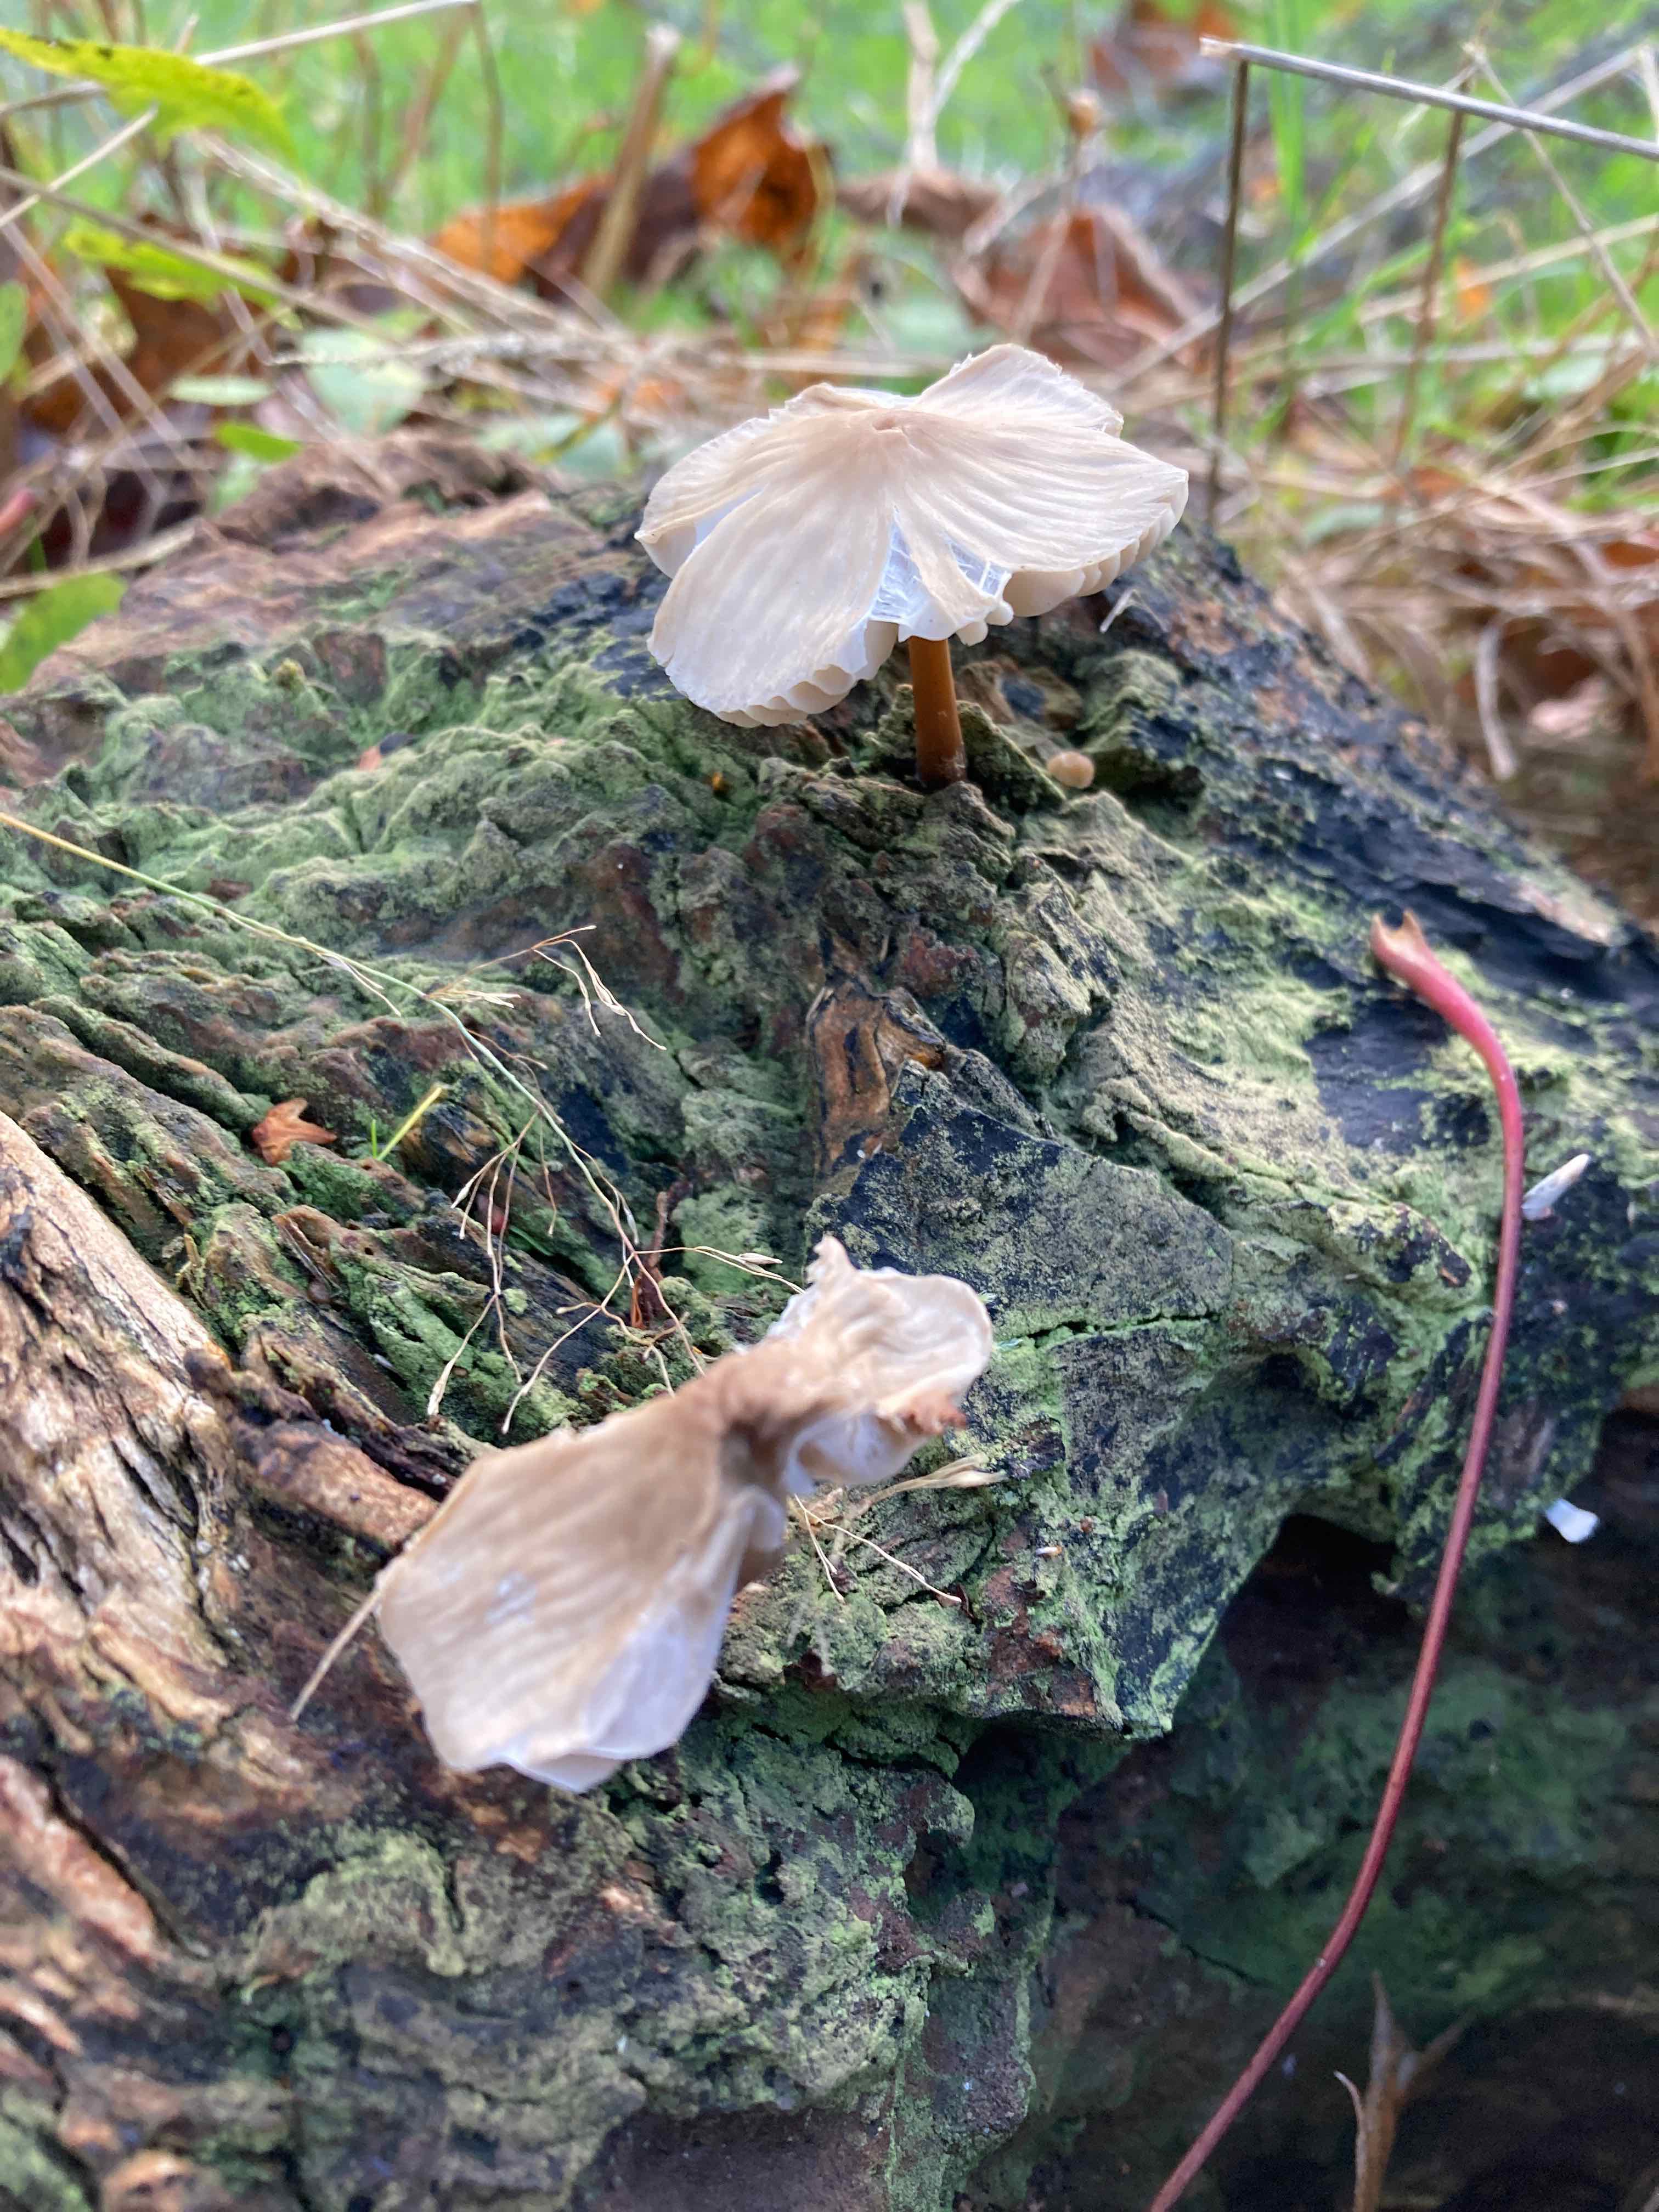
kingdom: Fungi
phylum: Basidiomycota
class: Agaricomycetes
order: Agaricales
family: Mycenaceae
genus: Mycena
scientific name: Mycena galericulata
